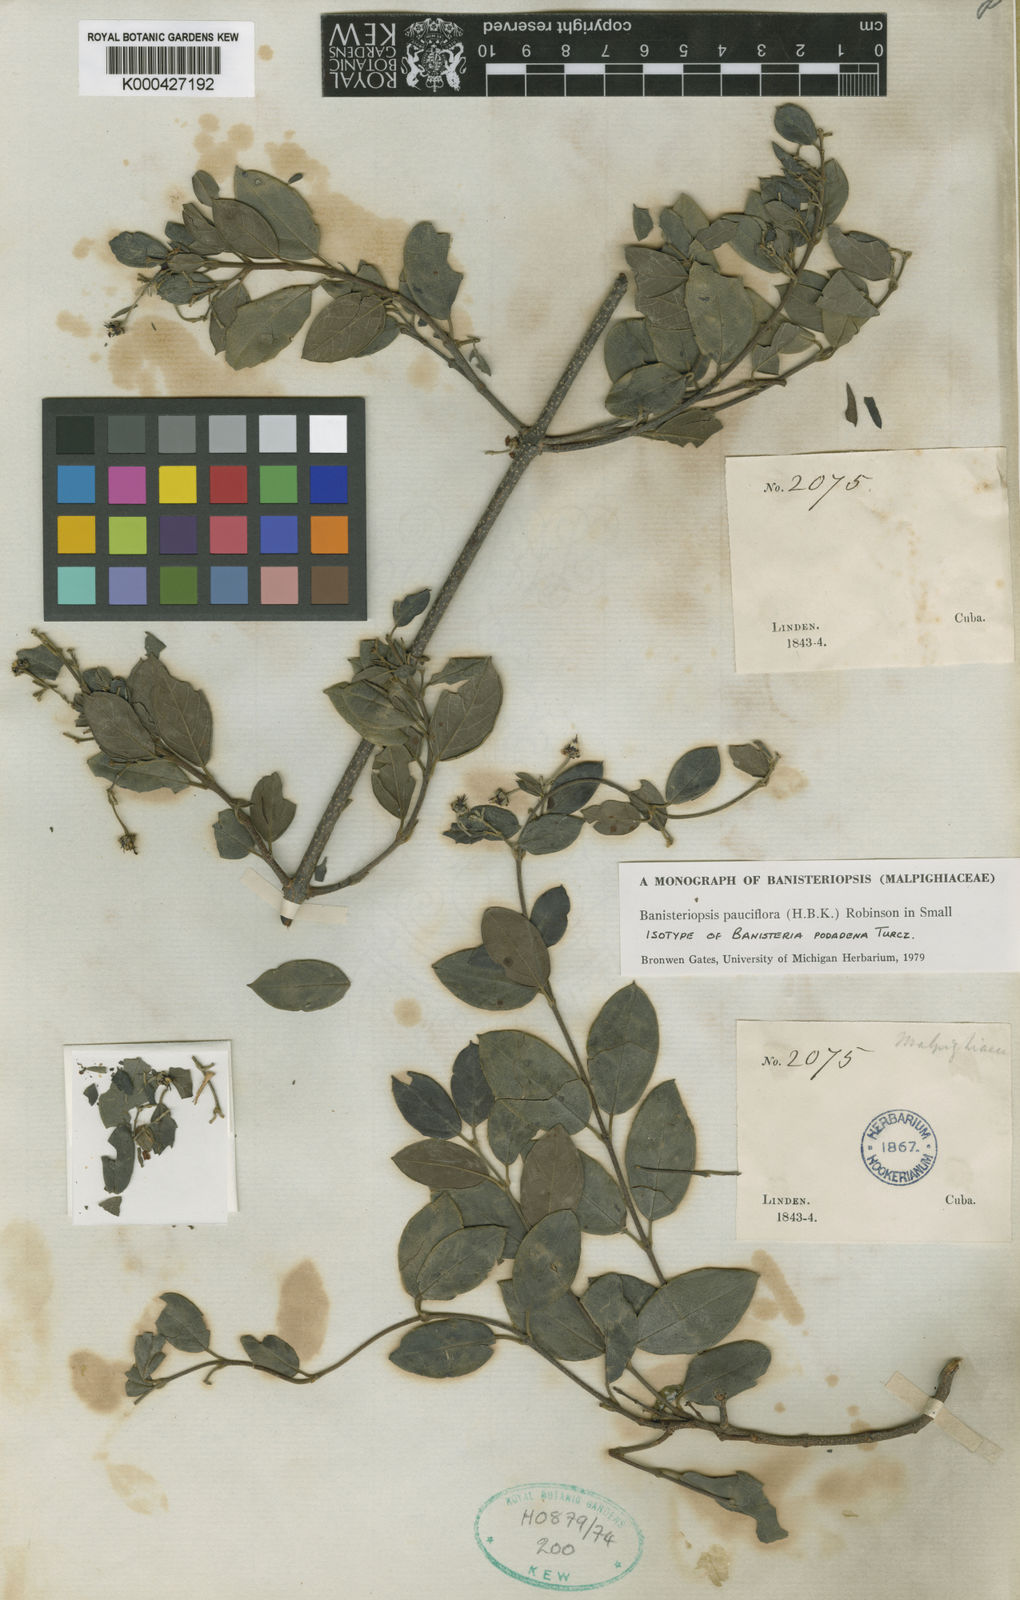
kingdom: Plantae
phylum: Tracheophyta
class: Magnoliopsida
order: Malpighiales
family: Malpighiaceae
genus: Banisteriopsis
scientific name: Banisteriopsis pauciflora
